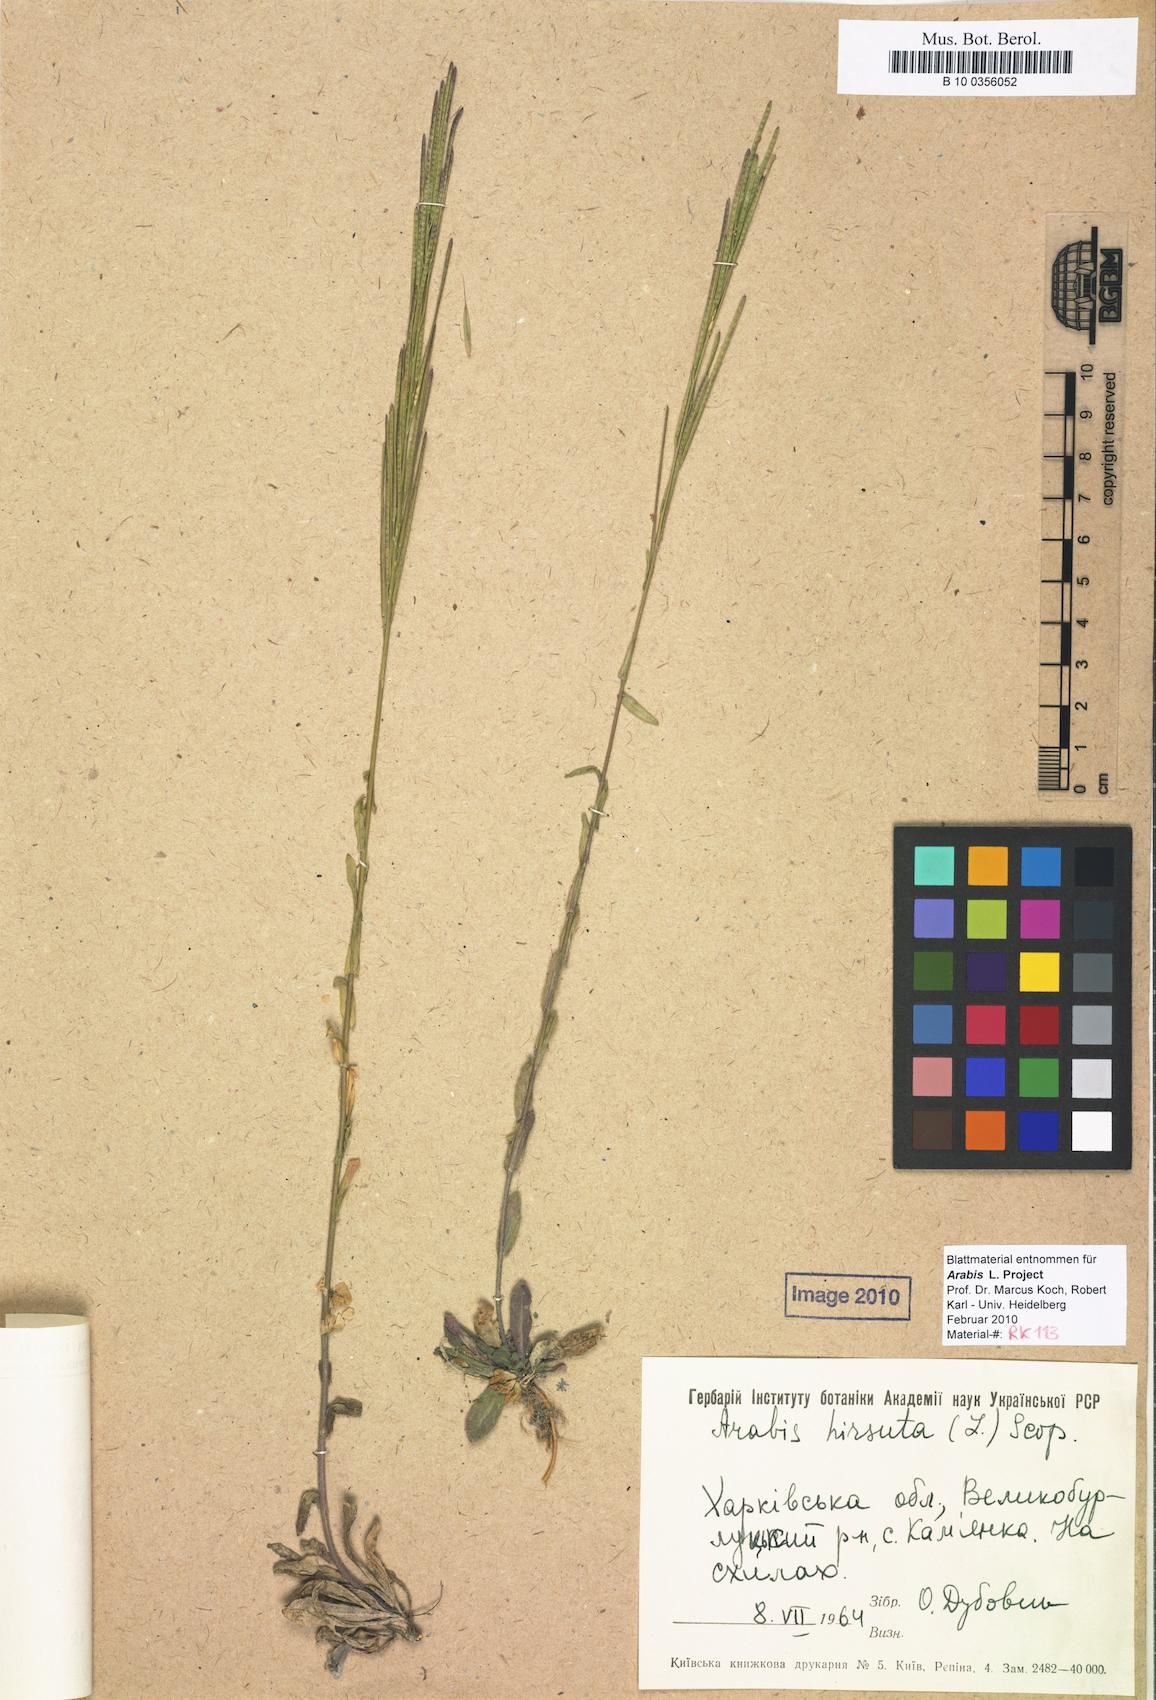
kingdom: Plantae
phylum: Tracheophyta
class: Magnoliopsida
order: Brassicales
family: Brassicaceae
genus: Arabis
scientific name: Arabis hirsuta
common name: Hairy rock-cress
